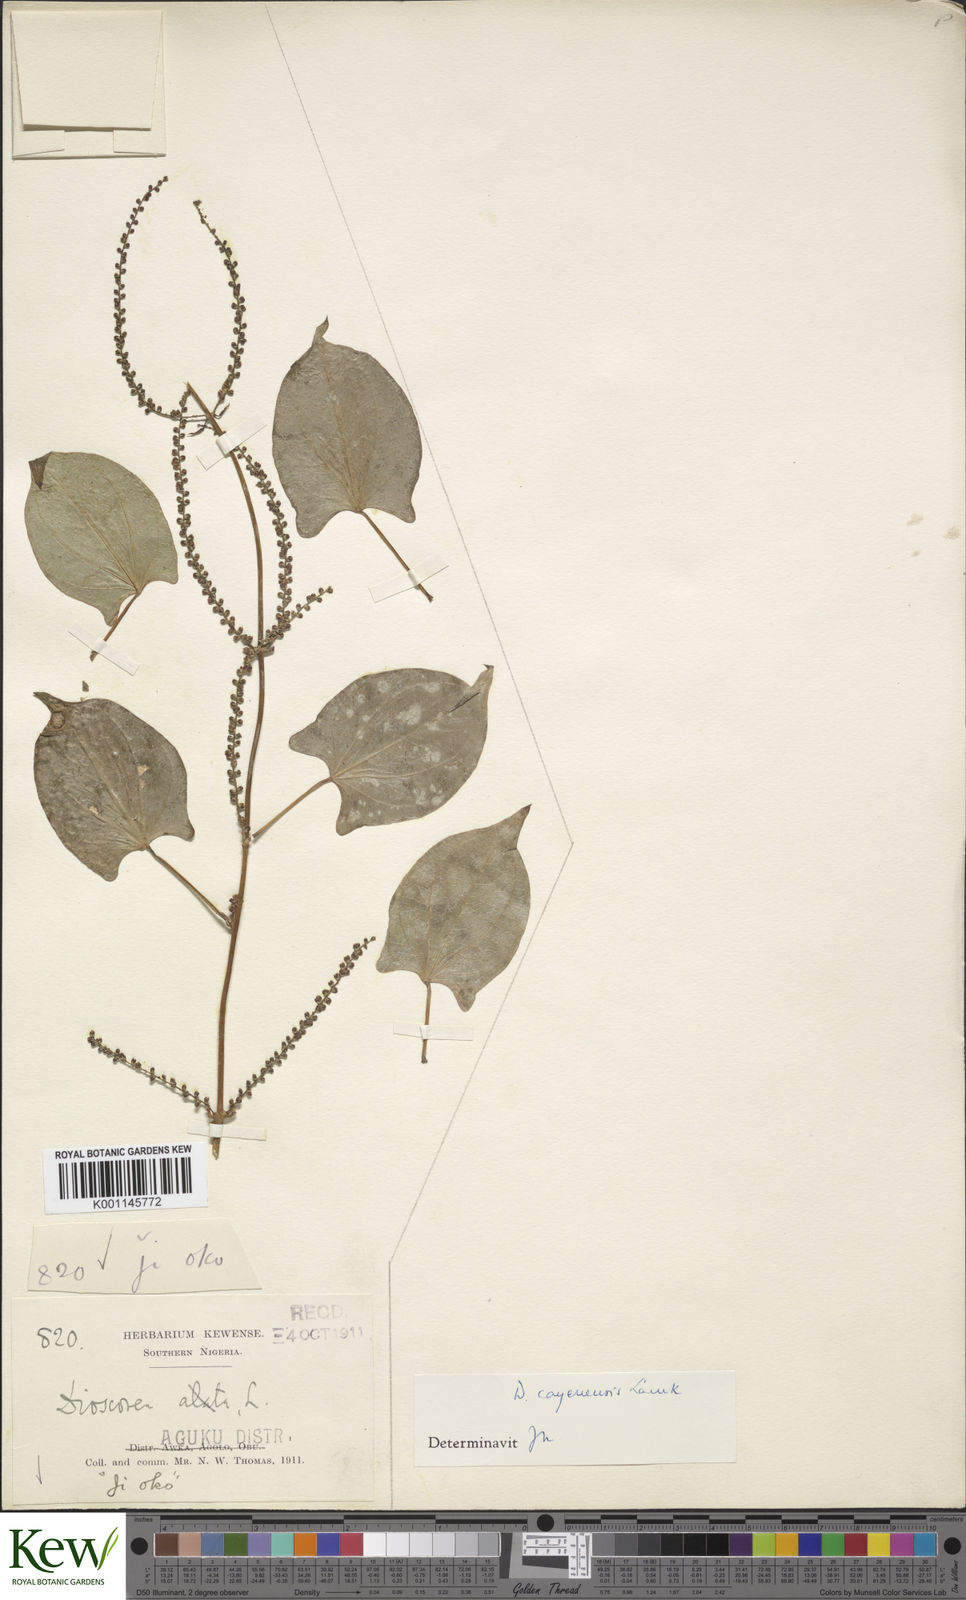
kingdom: Plantae
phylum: Tracheophyta
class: Liliopsida
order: Dioscoreales
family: Dioscoreaceae
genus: Dioscorea
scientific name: Dioscorea cayenensis
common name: Attoto yam
